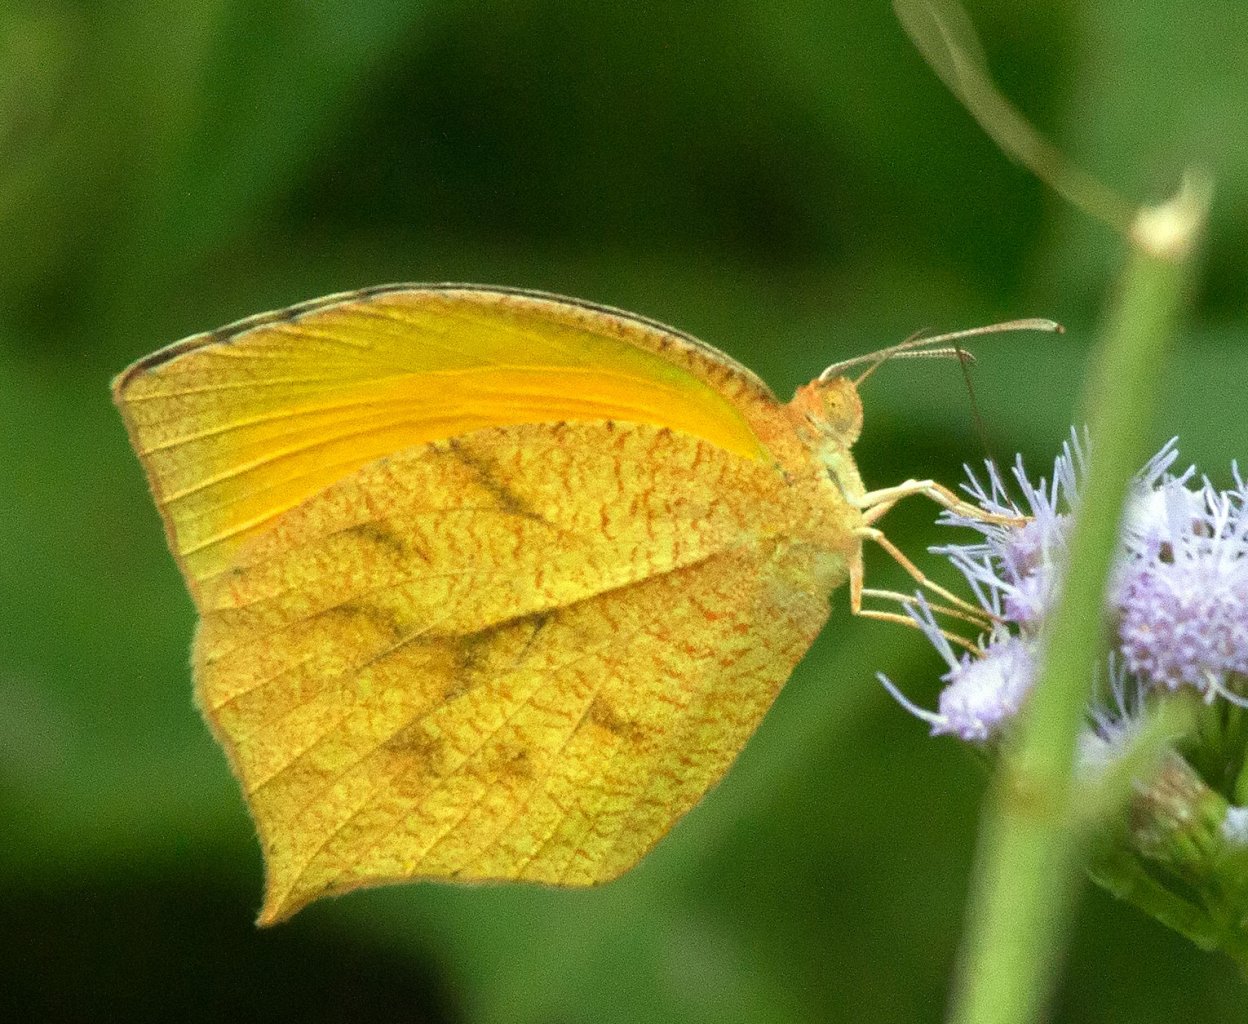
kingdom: Animalia
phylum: Arthropoda
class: Insecta
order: Lepidoptera
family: Pieridae
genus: Pyrisitia
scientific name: Pyrisitia proterpia
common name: Tailed Orange
